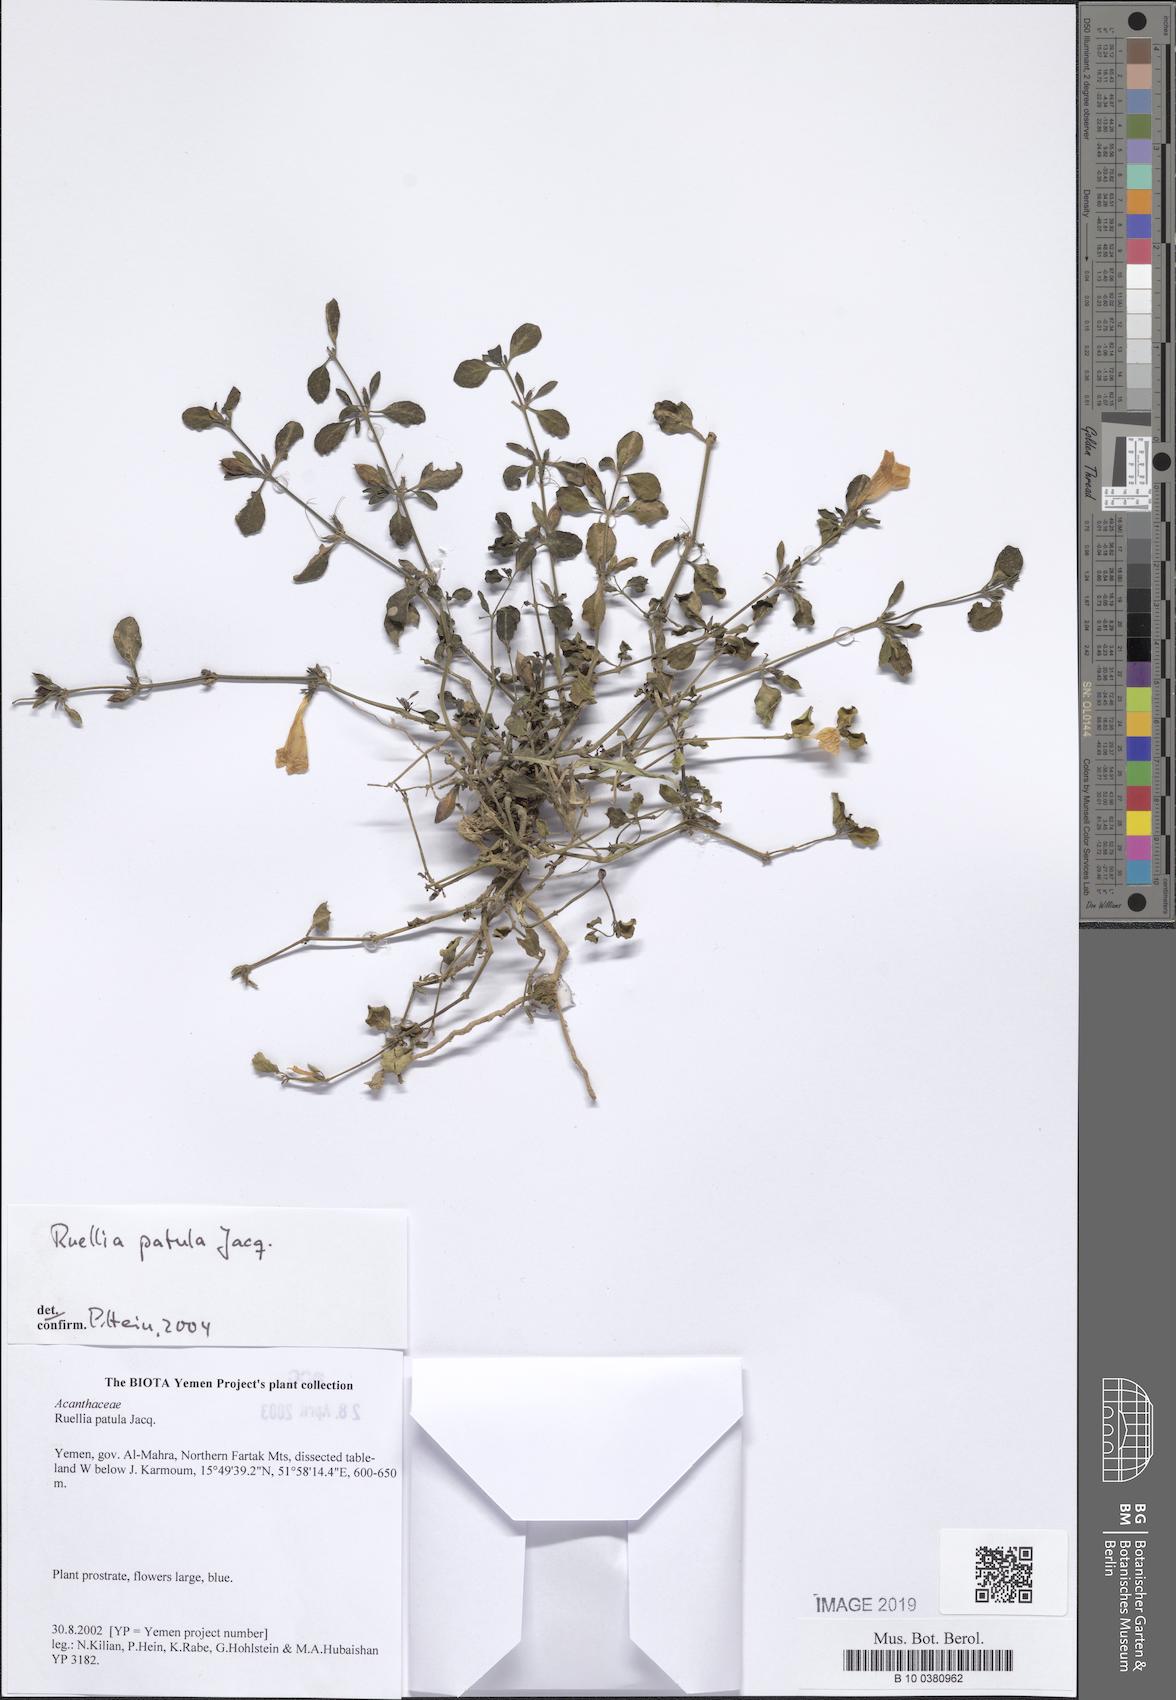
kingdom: Plantae
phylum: Tracheophyta
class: Magnoliopsida
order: Lamiales
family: Acanthaceae
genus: Ruellia
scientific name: Ruellia patula
